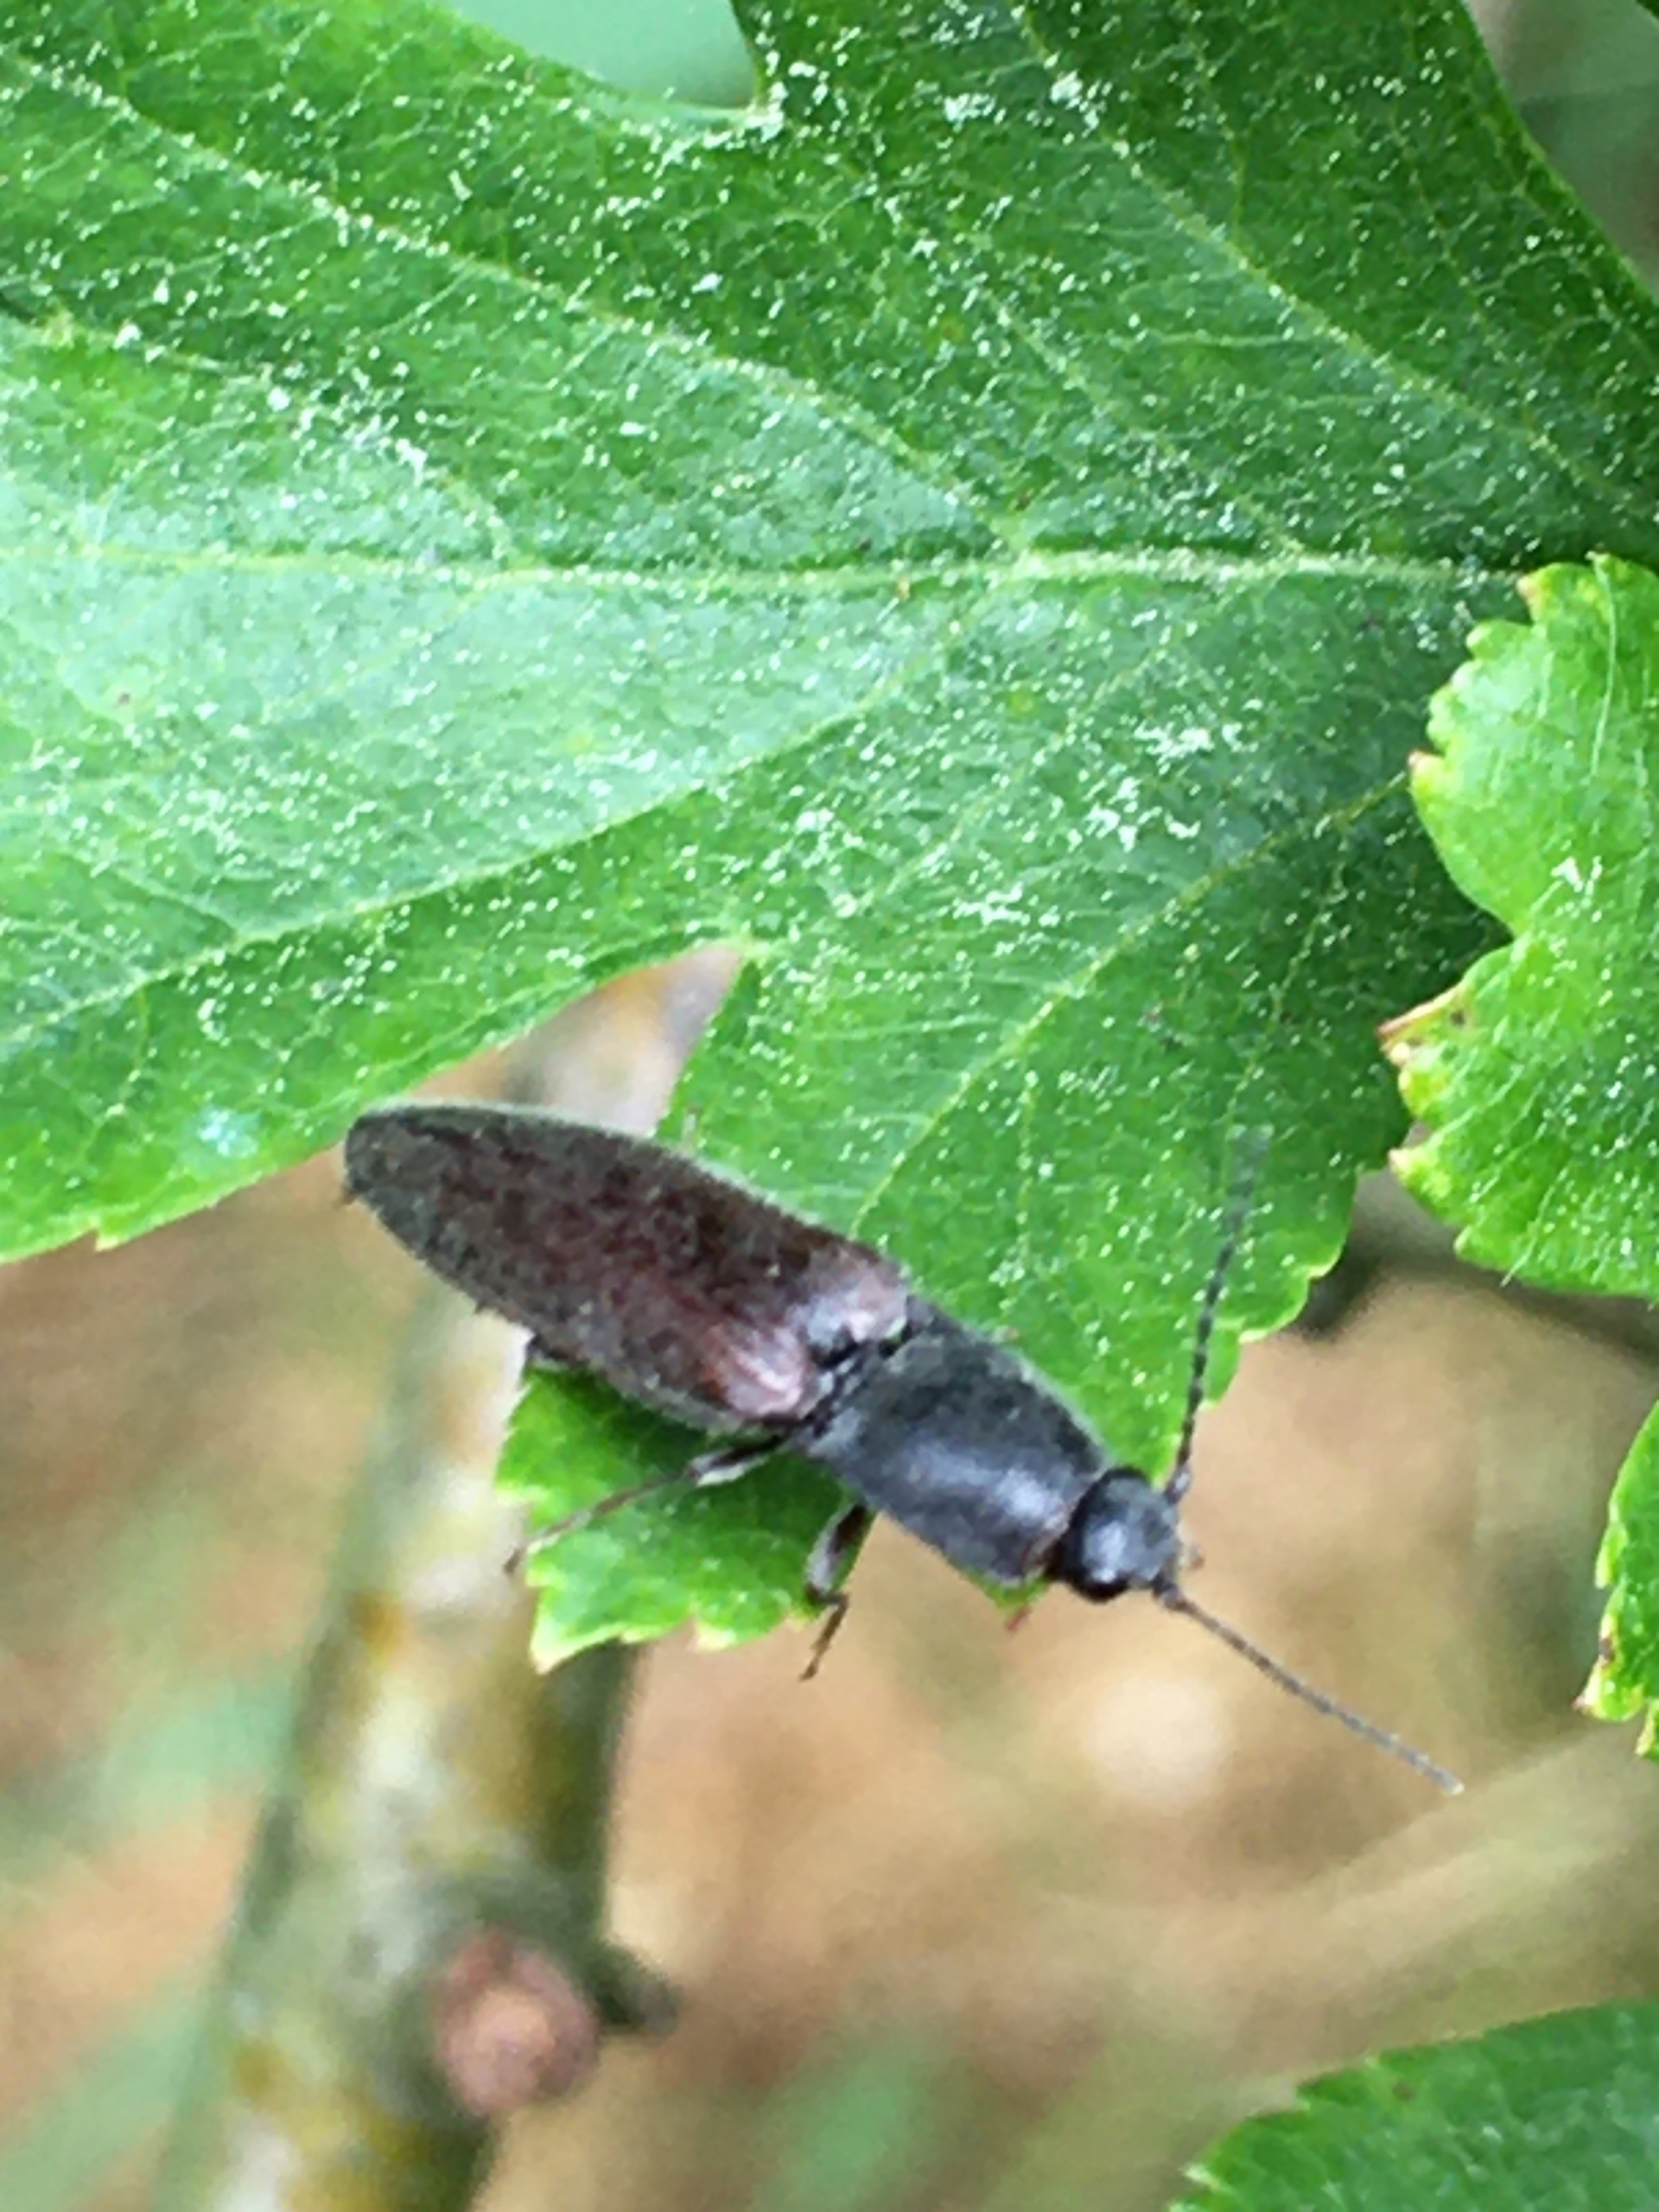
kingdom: Animalia
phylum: Arthropoda
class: Insecta
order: Coleoptera
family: Elateridae
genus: Athous
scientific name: Athous haemorrhoidalis
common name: Rødhalet busksmælder
